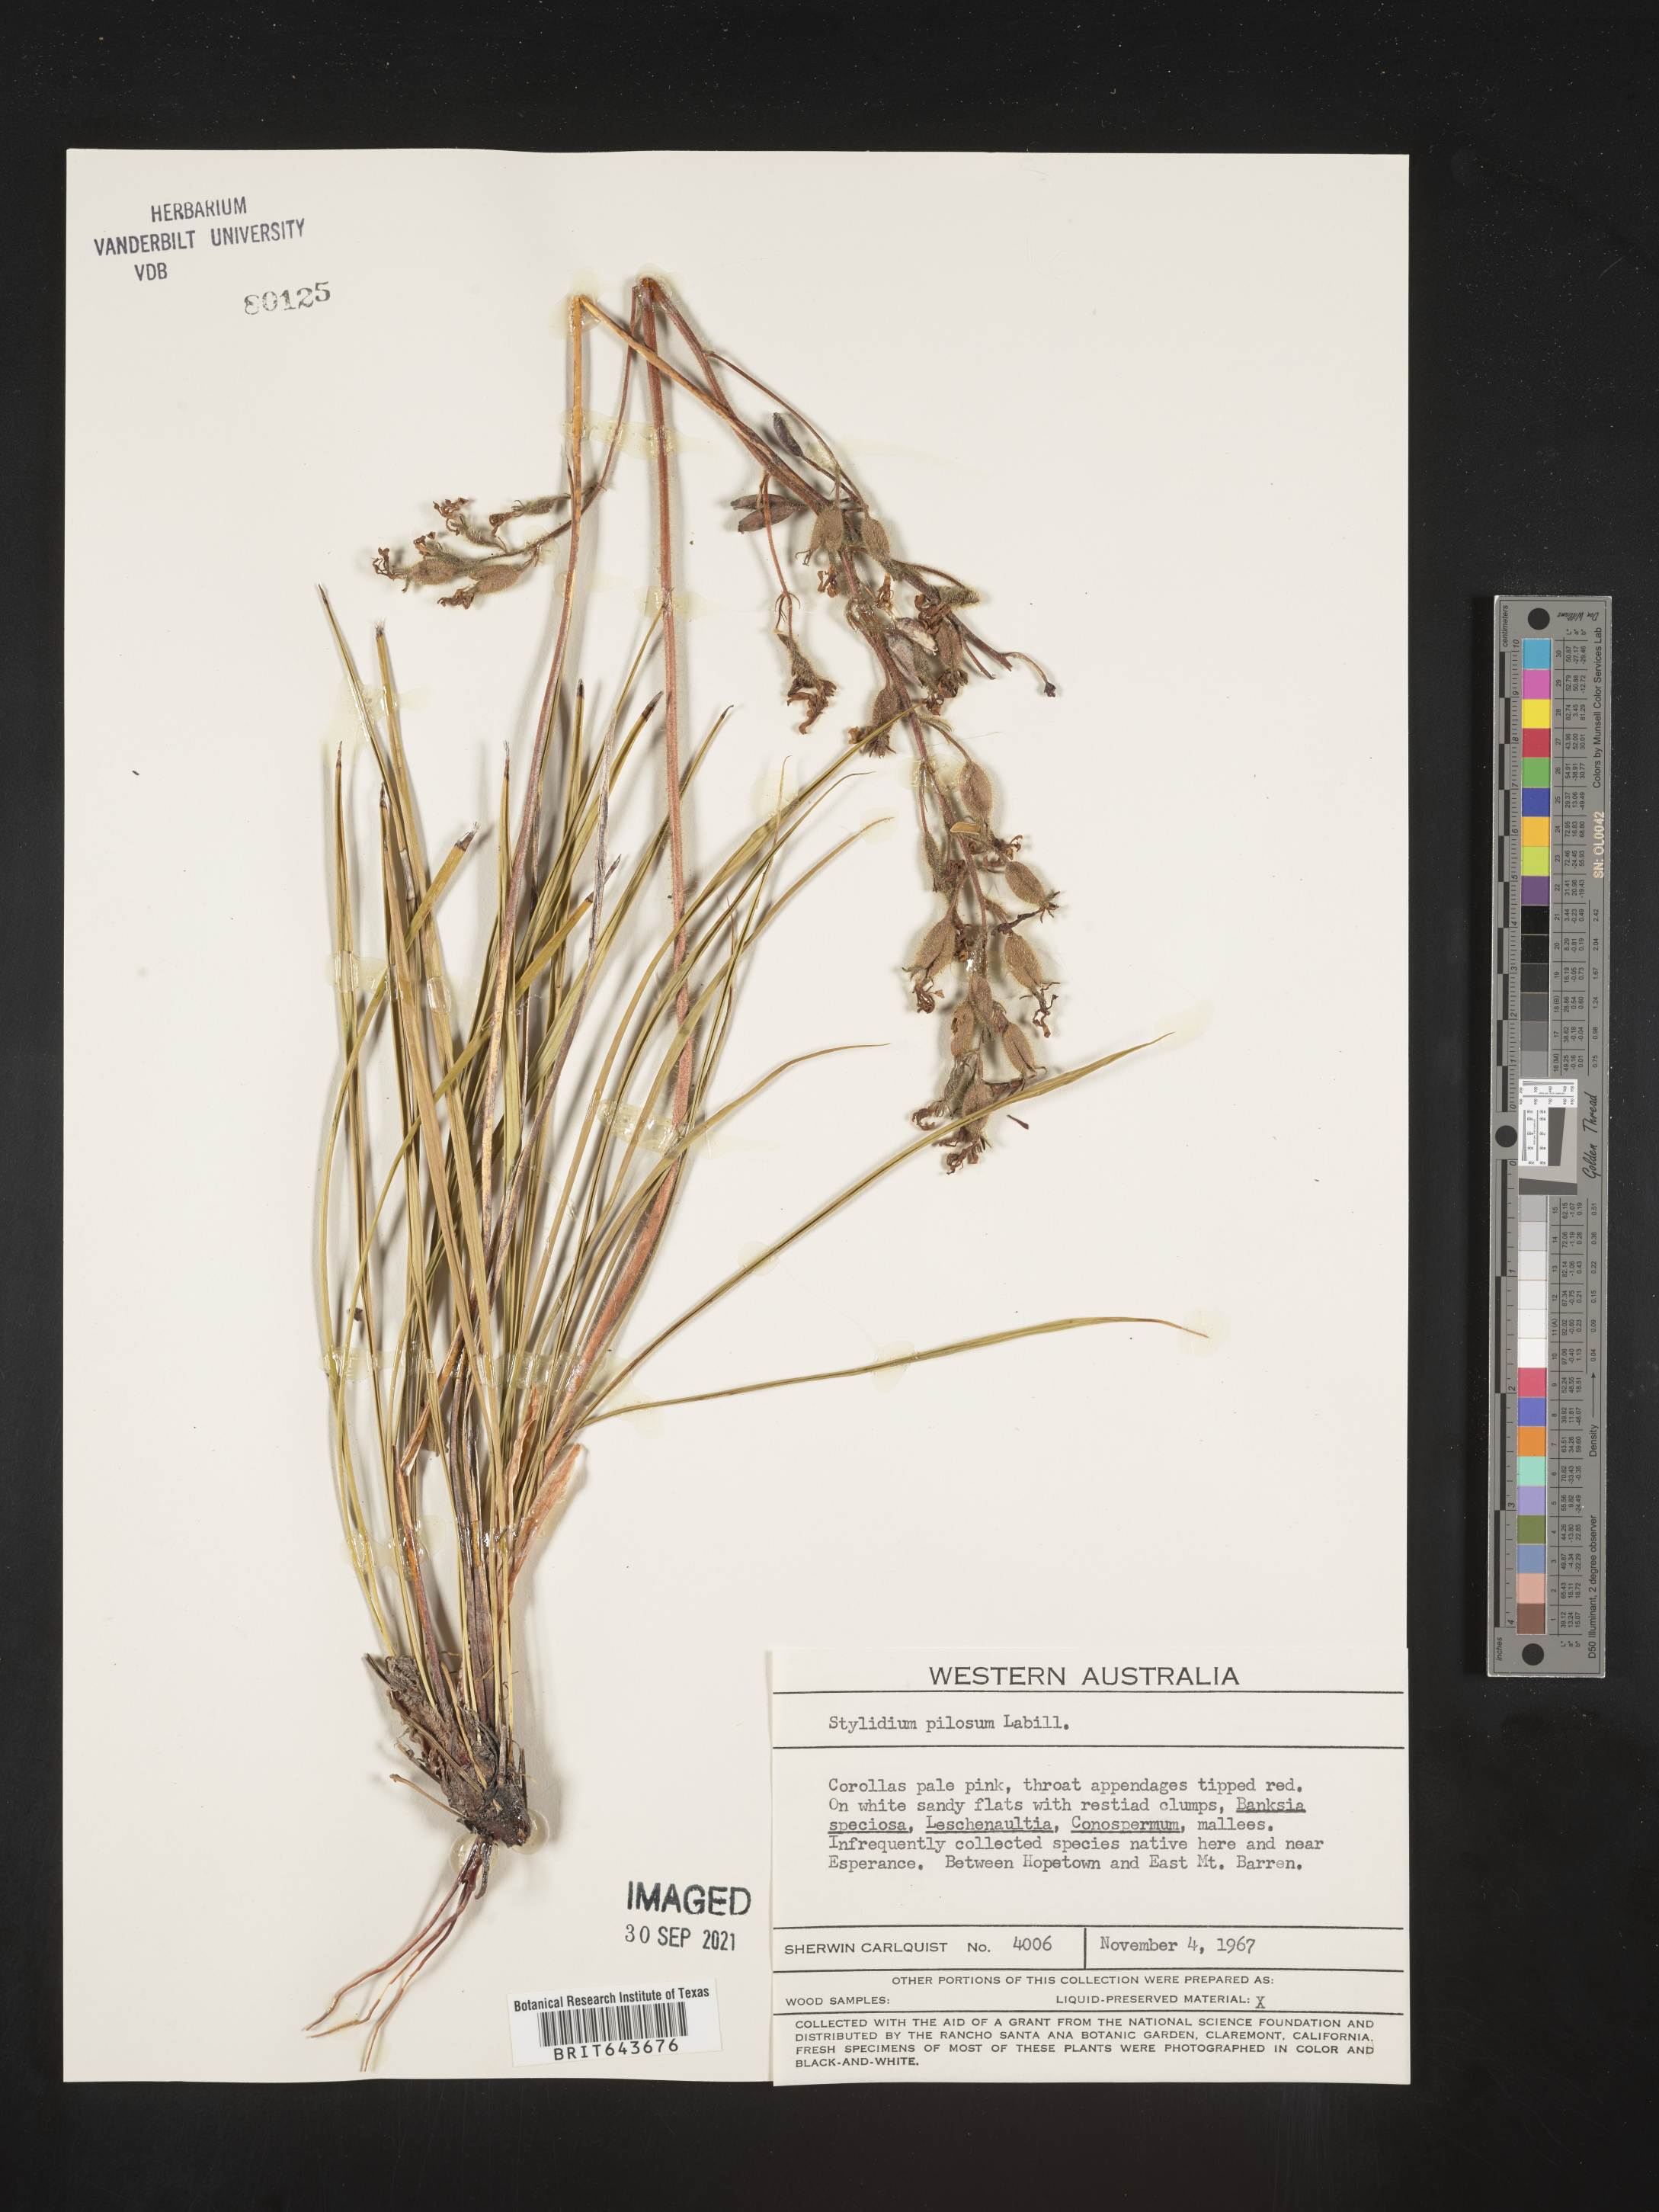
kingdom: Plantae
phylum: Tracheophyta
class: Magnoliopsida
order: Asterales
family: Stylidiaceae
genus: Stylidium
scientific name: Stylidium
